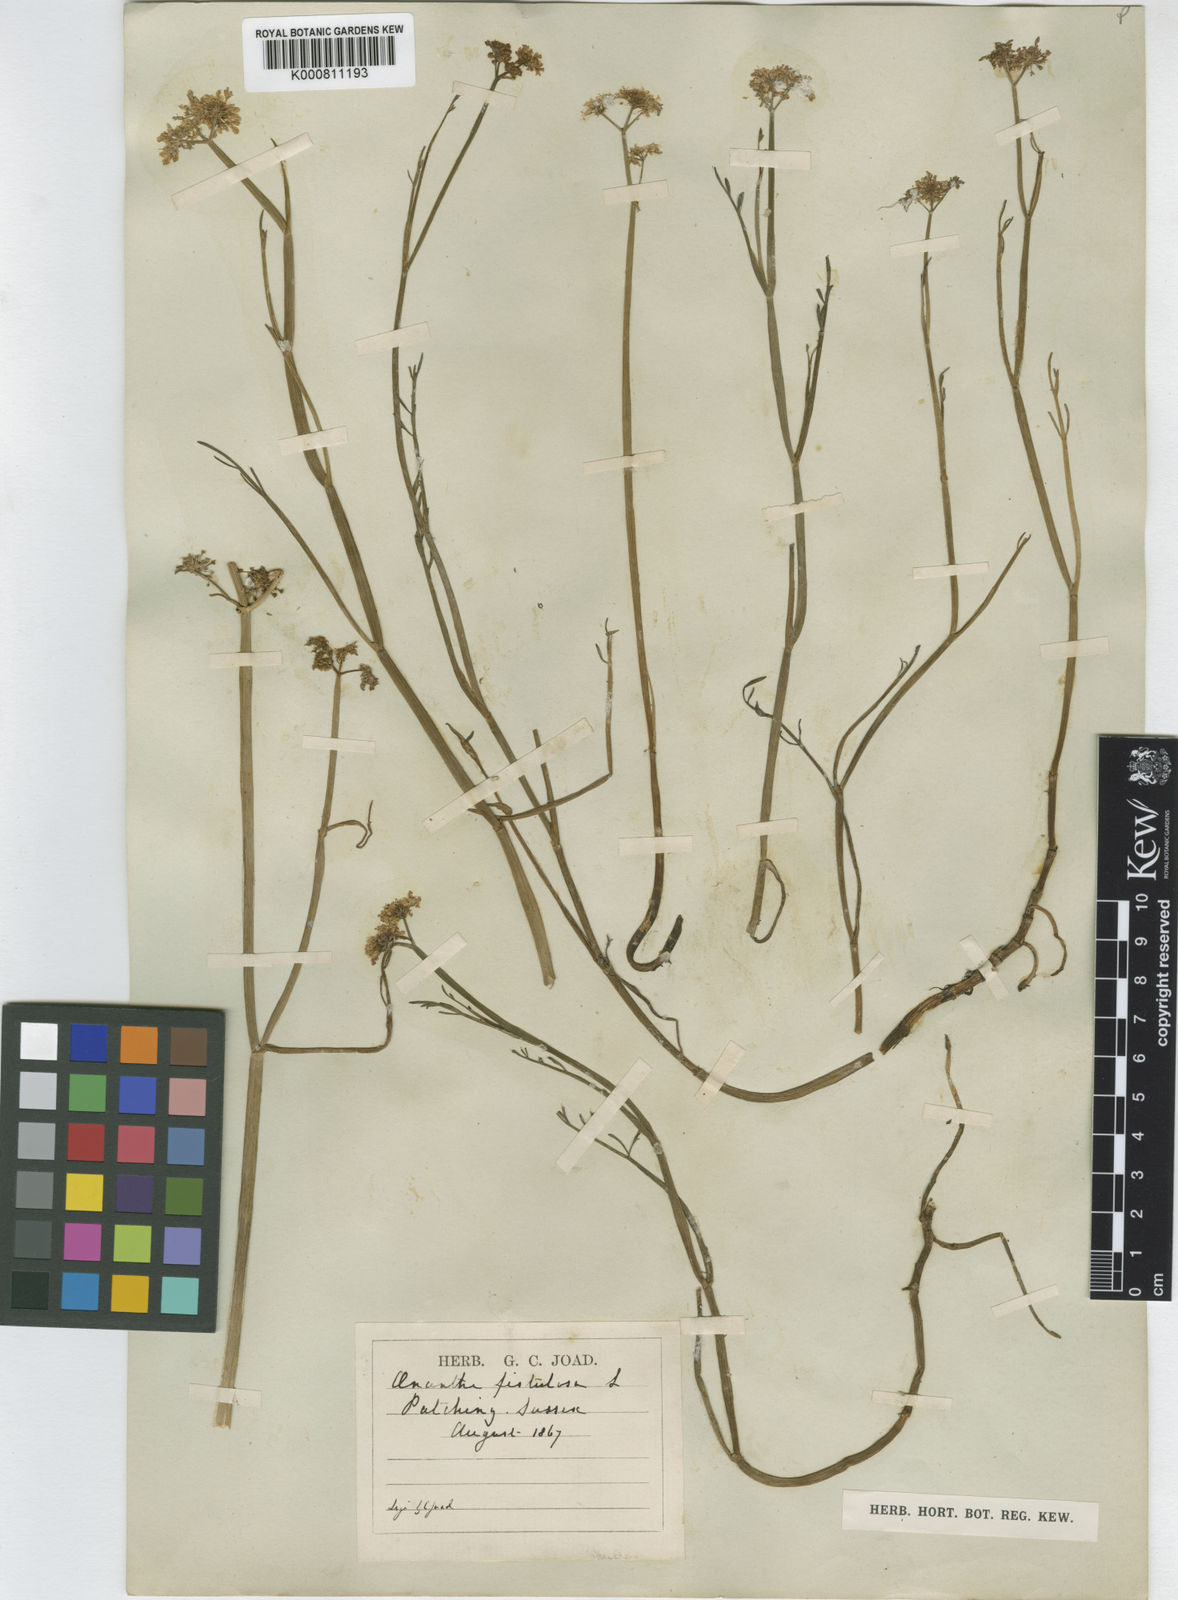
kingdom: Plantae
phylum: Tracheophyta
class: Magnoliopsida
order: Apiales
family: Apiaceae
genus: Oenanthe
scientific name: Oenanthe fistulosa
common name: Tubular water-dropwort
